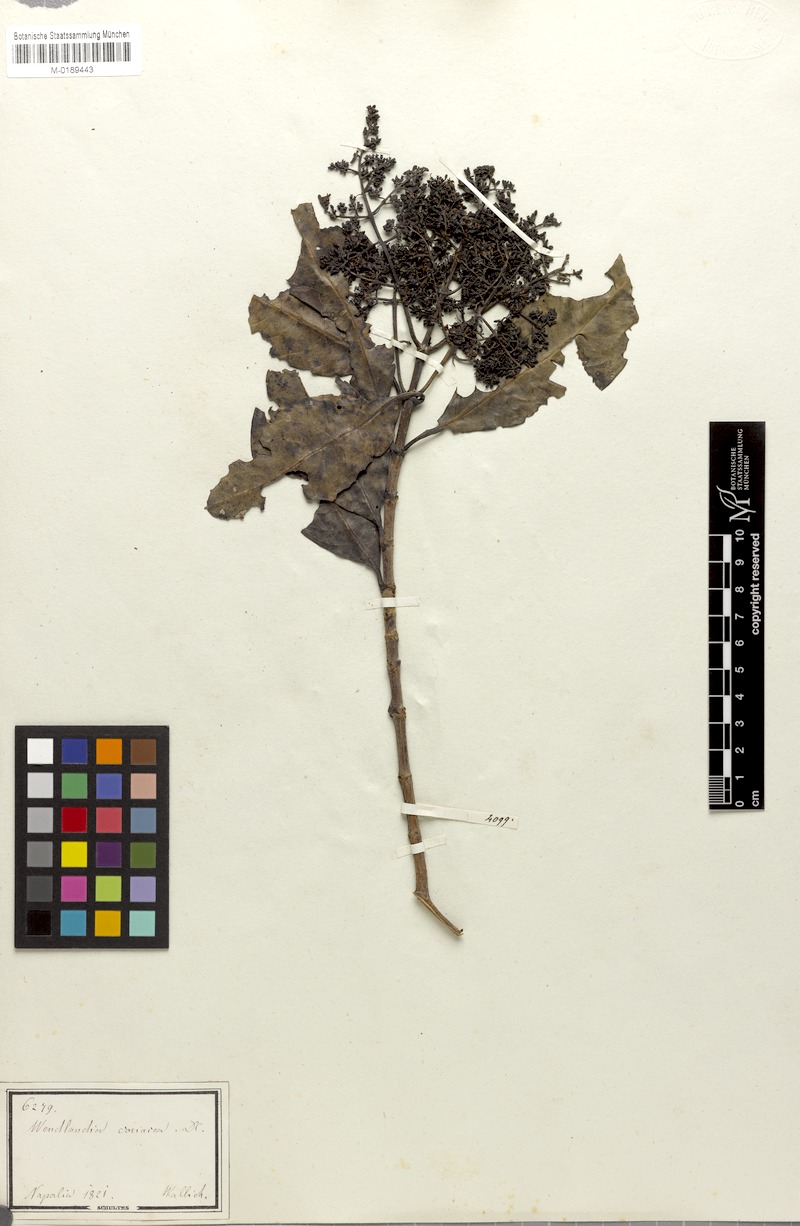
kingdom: Plantae
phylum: Tracheophyta
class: Magnoliopsida
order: Gentianales
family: Rubiaceae
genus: Wendlandia
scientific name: Wendlandia coriacea
